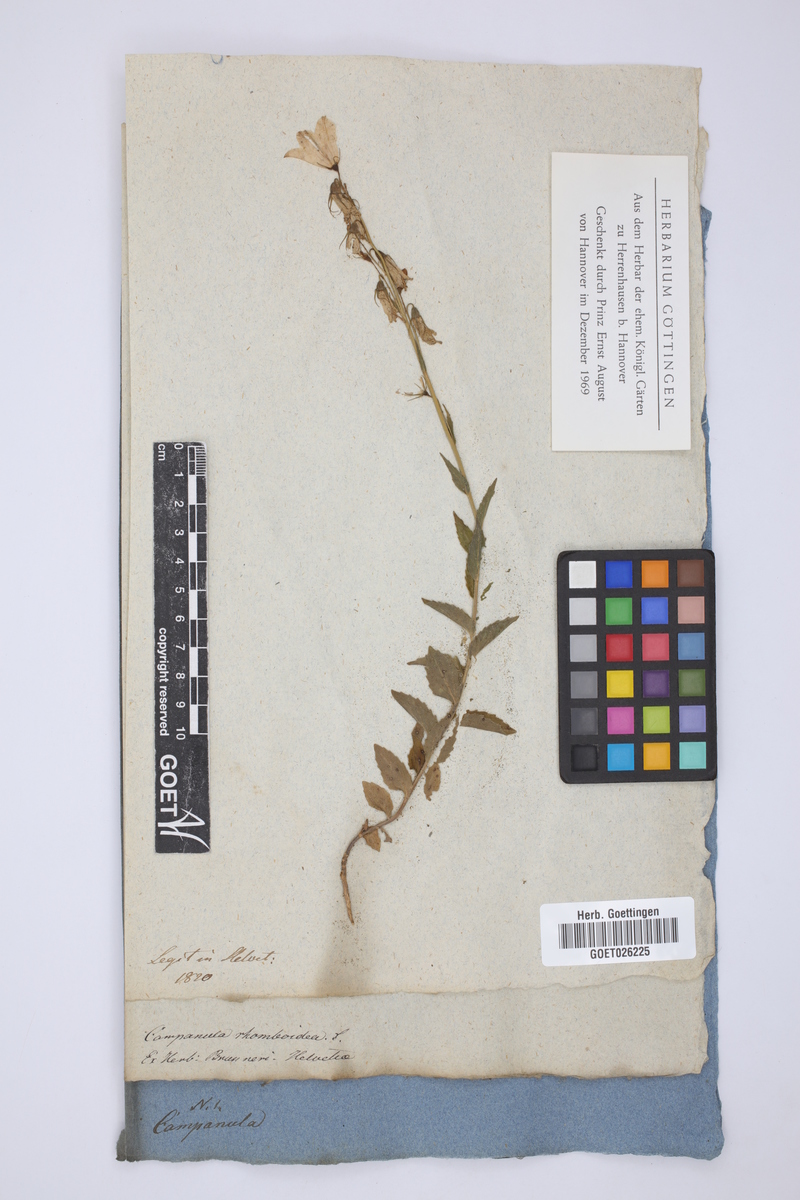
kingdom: Plantae
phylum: Tracheophyta
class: Magnoliopsida
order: Asterales
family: Campanulaceae
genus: Campanula
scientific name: Campanula rapunculoides
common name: Creeping bellflower
